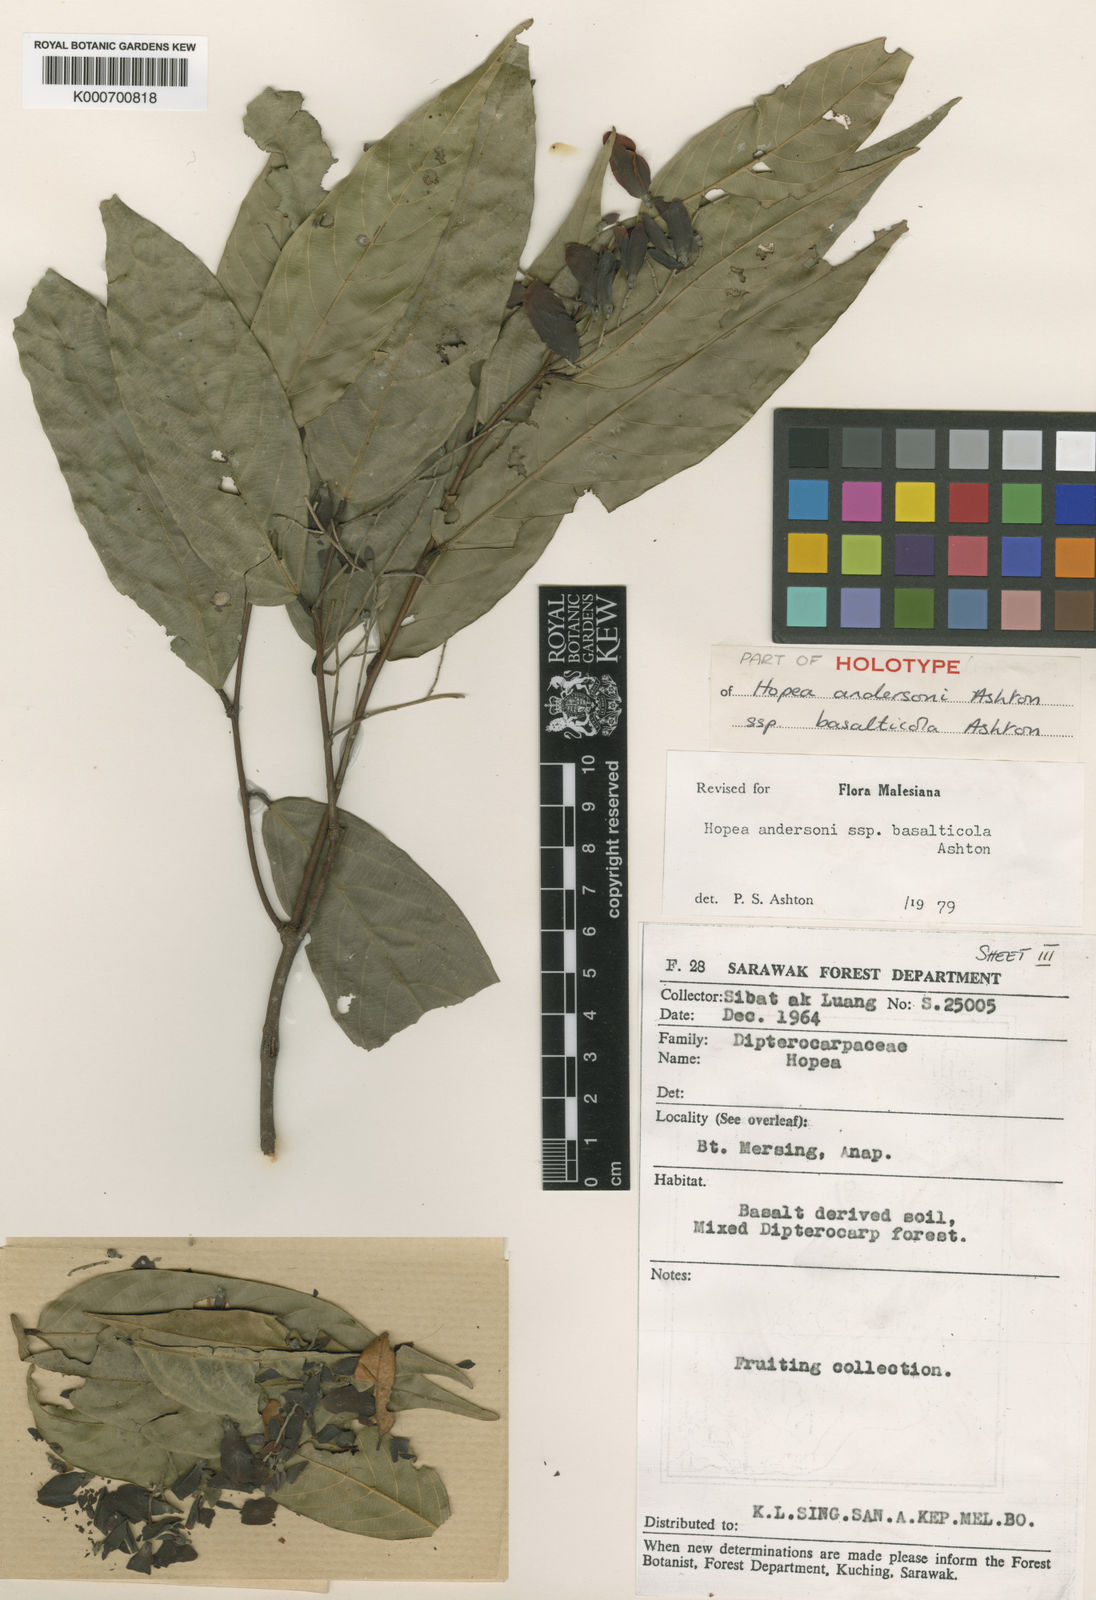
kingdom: Plantae
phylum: Tracheophyta
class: Magnoliopsida
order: Malvales
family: Dipterocarpaceae
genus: Hopea
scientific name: Hopea andersonii
